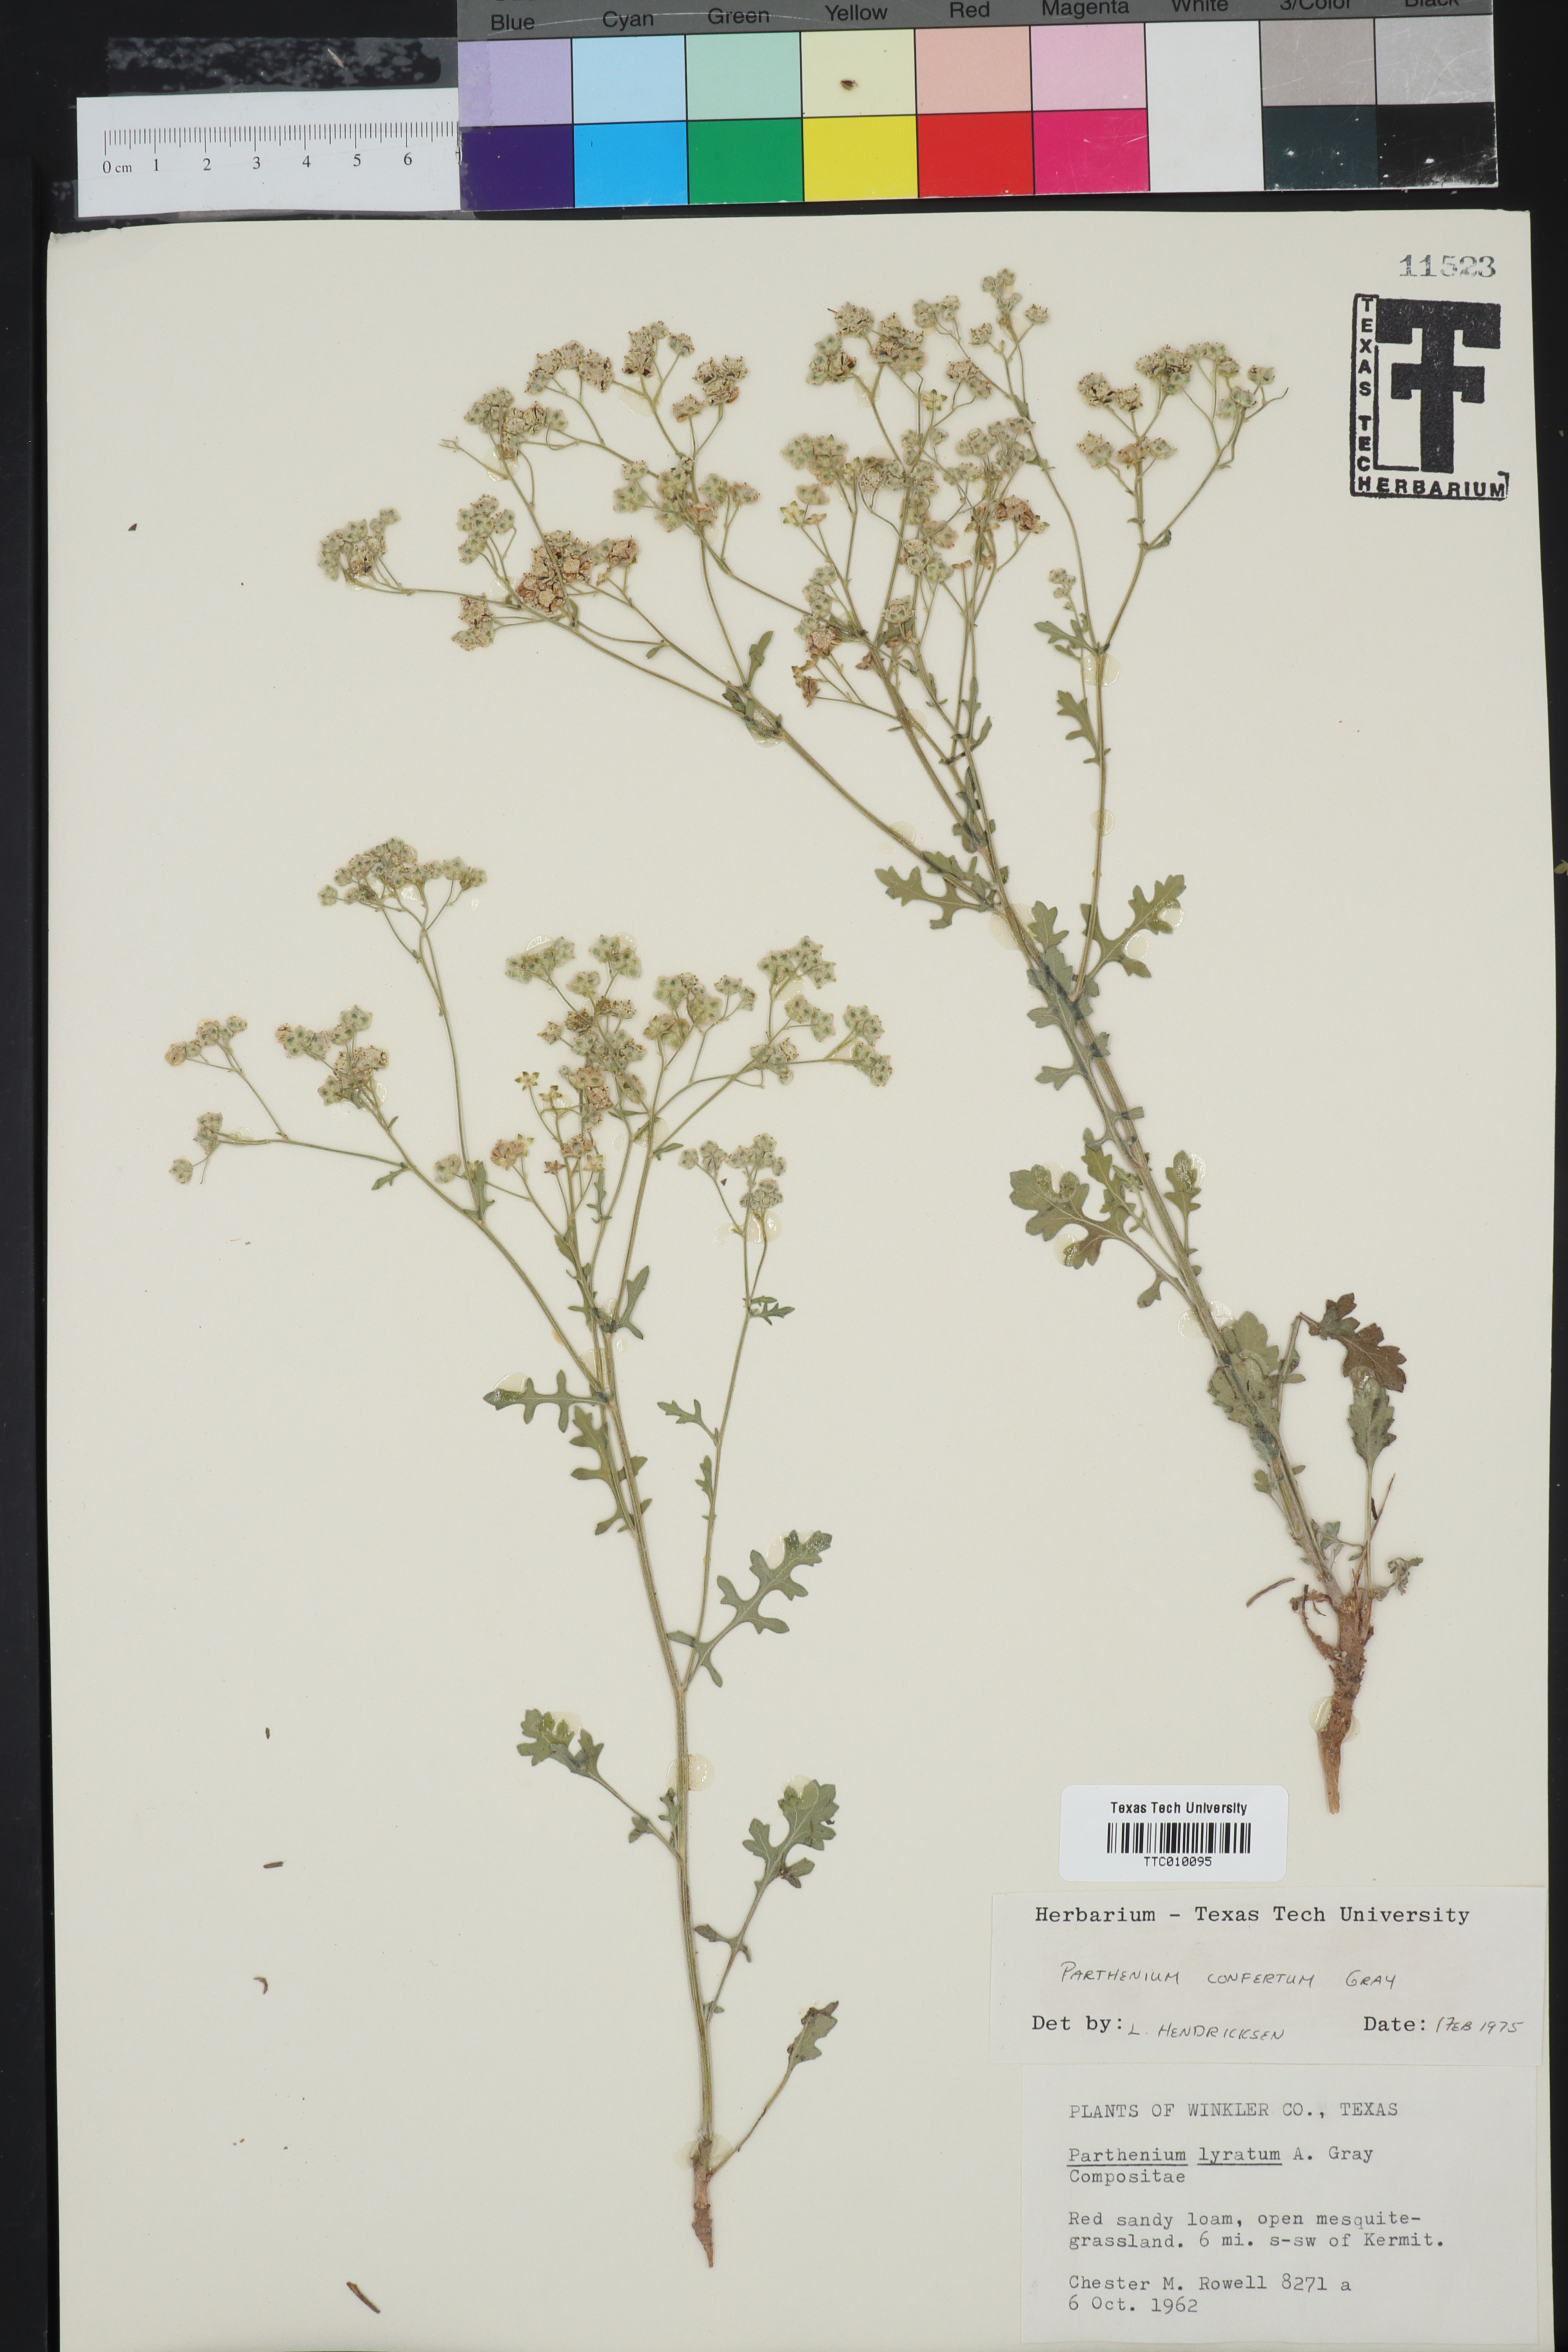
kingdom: Plantae
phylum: Tracheophyta
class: Magnoliopsida
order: Asterales
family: Asteraceae
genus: Parthenium
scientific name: Parthenium confertum
